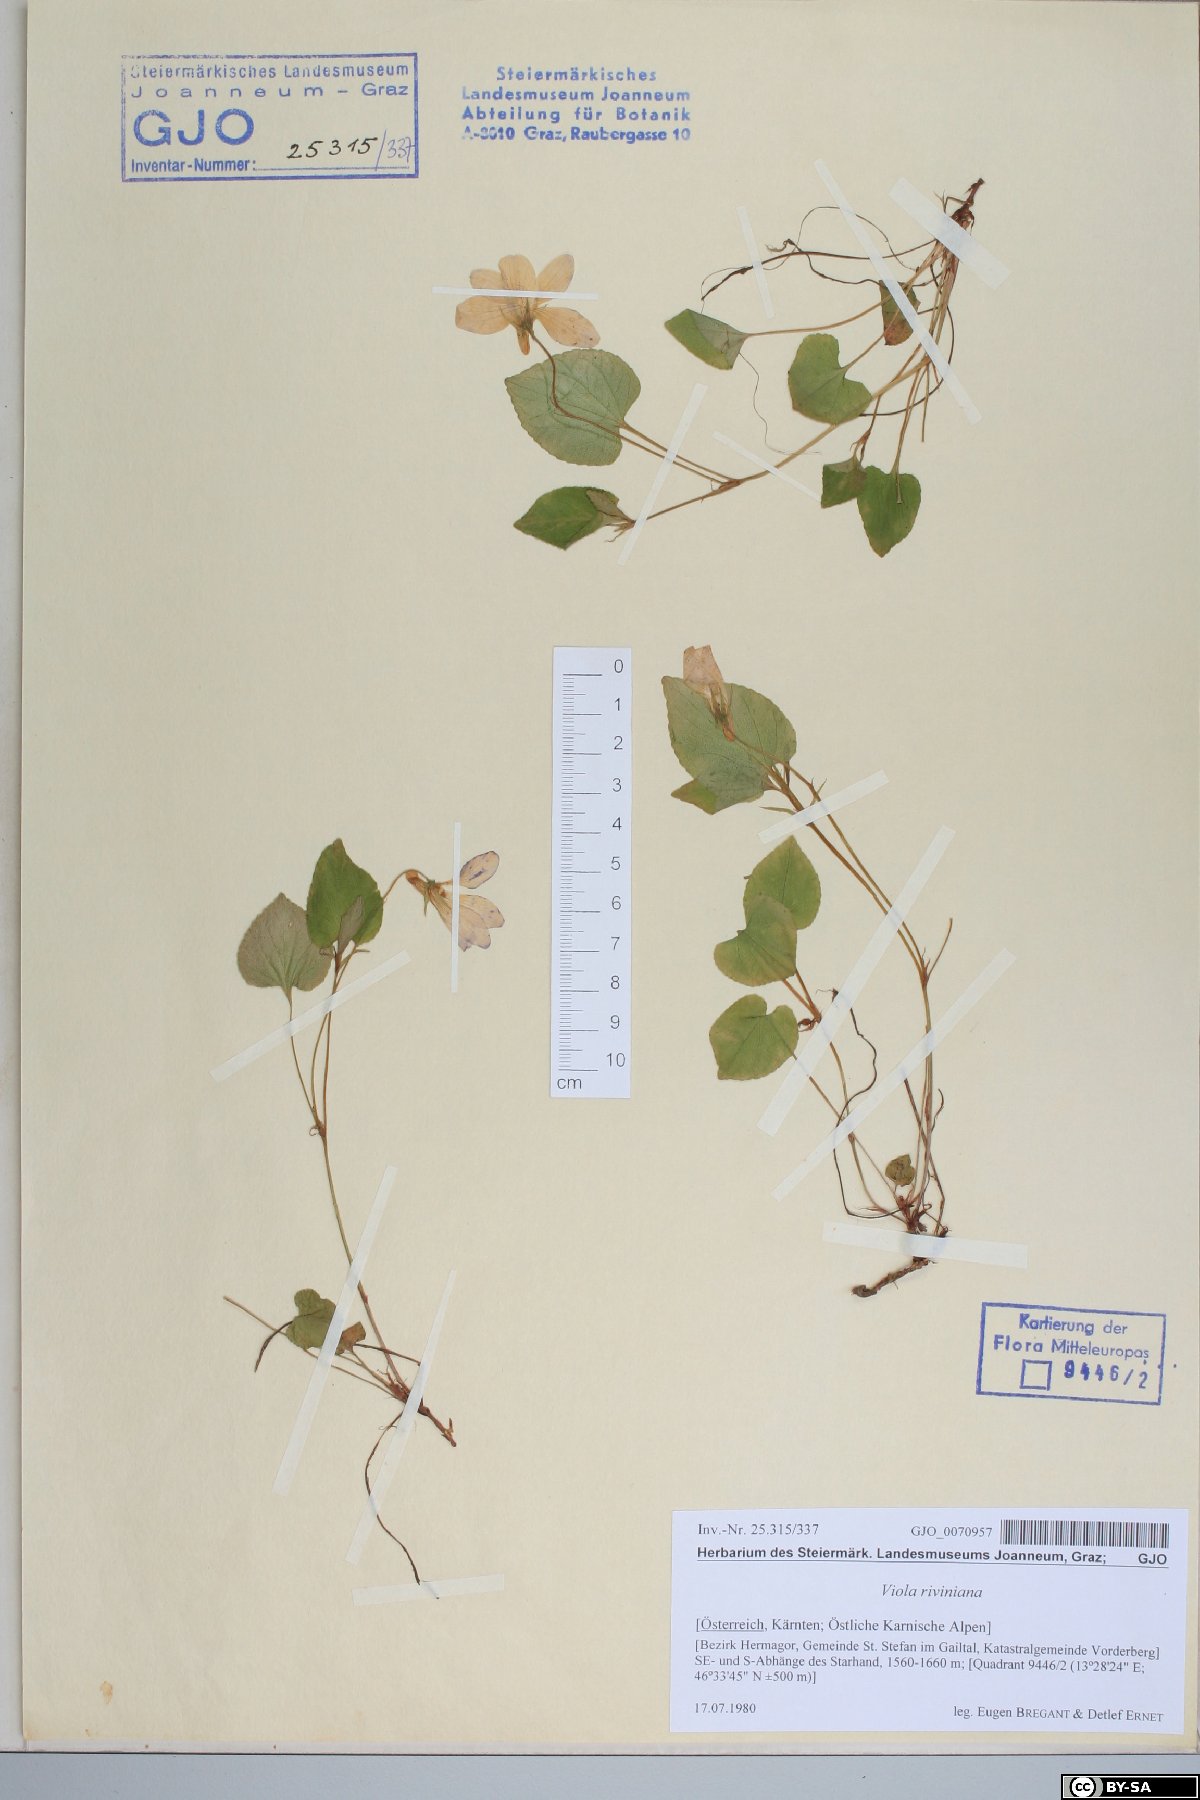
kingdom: Plantae
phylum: Tracheophyta
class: Magnoliopsida
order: Malpighiales
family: Violaceae
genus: Viola
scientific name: Viola riviniana
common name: Common dog-violet
